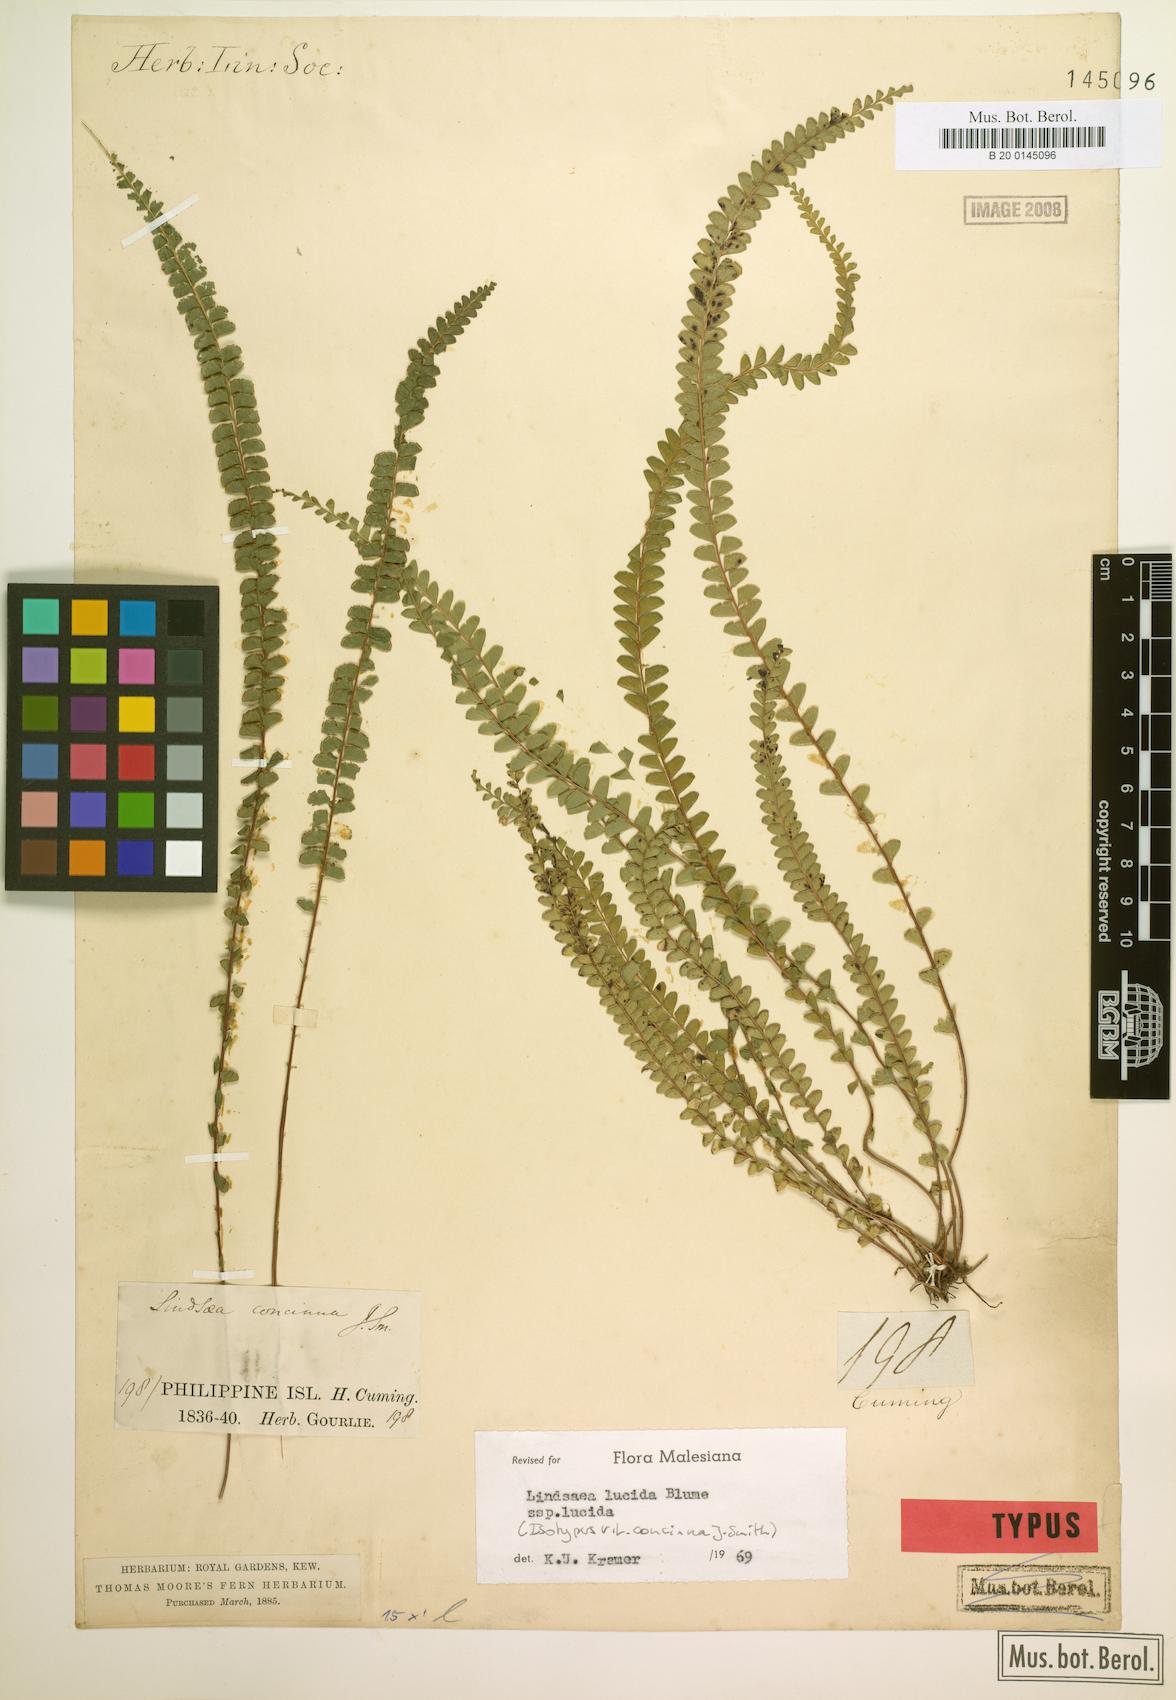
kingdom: Plantae
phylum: Tracheophyta
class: Polypodiopsida
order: Polypodiales
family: Lindsaeaceae
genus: Lindsaea
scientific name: Lindsaea lucida
